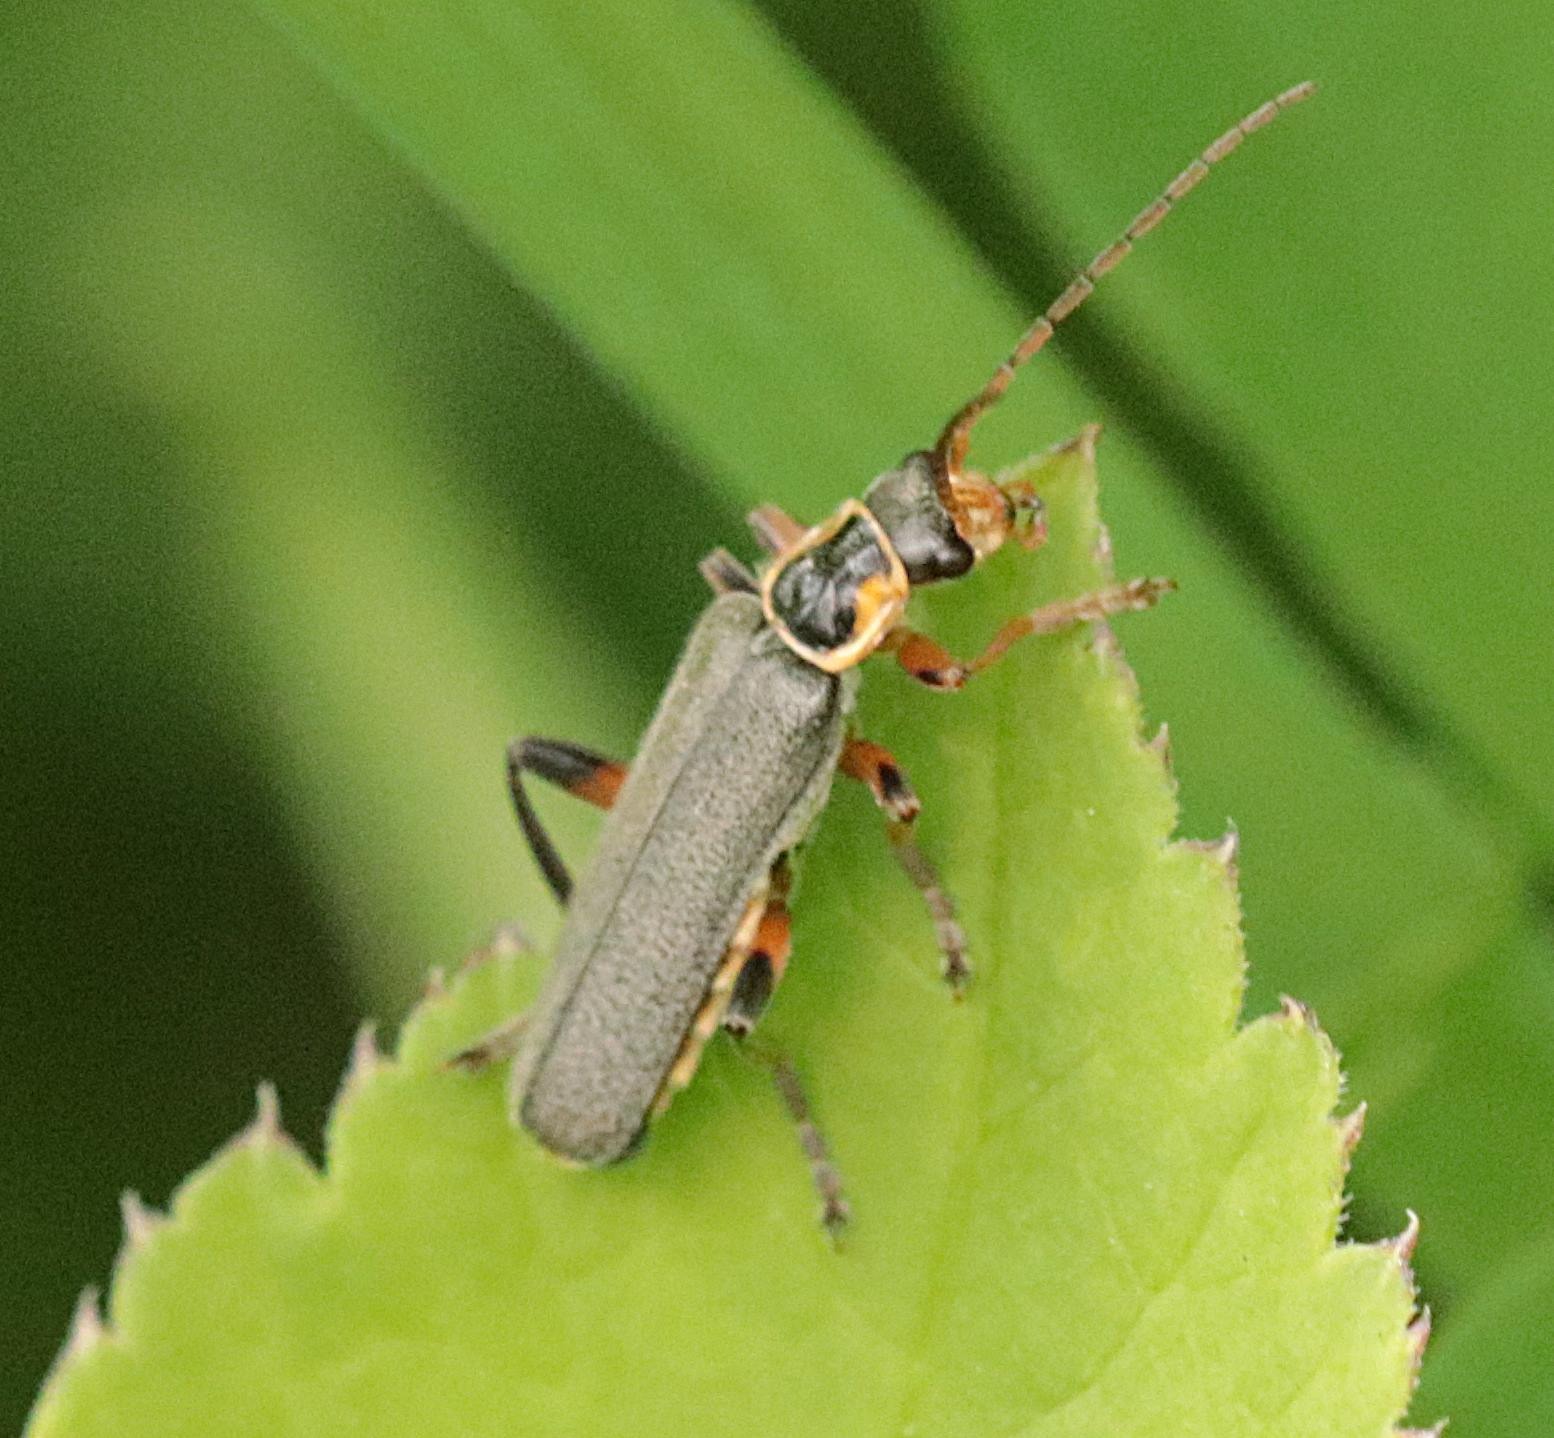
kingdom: Animalia
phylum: Arthropoda
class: Insecta
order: Coleoptera
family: Cantharidae
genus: Cantharis
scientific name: Cantharis nigricans
